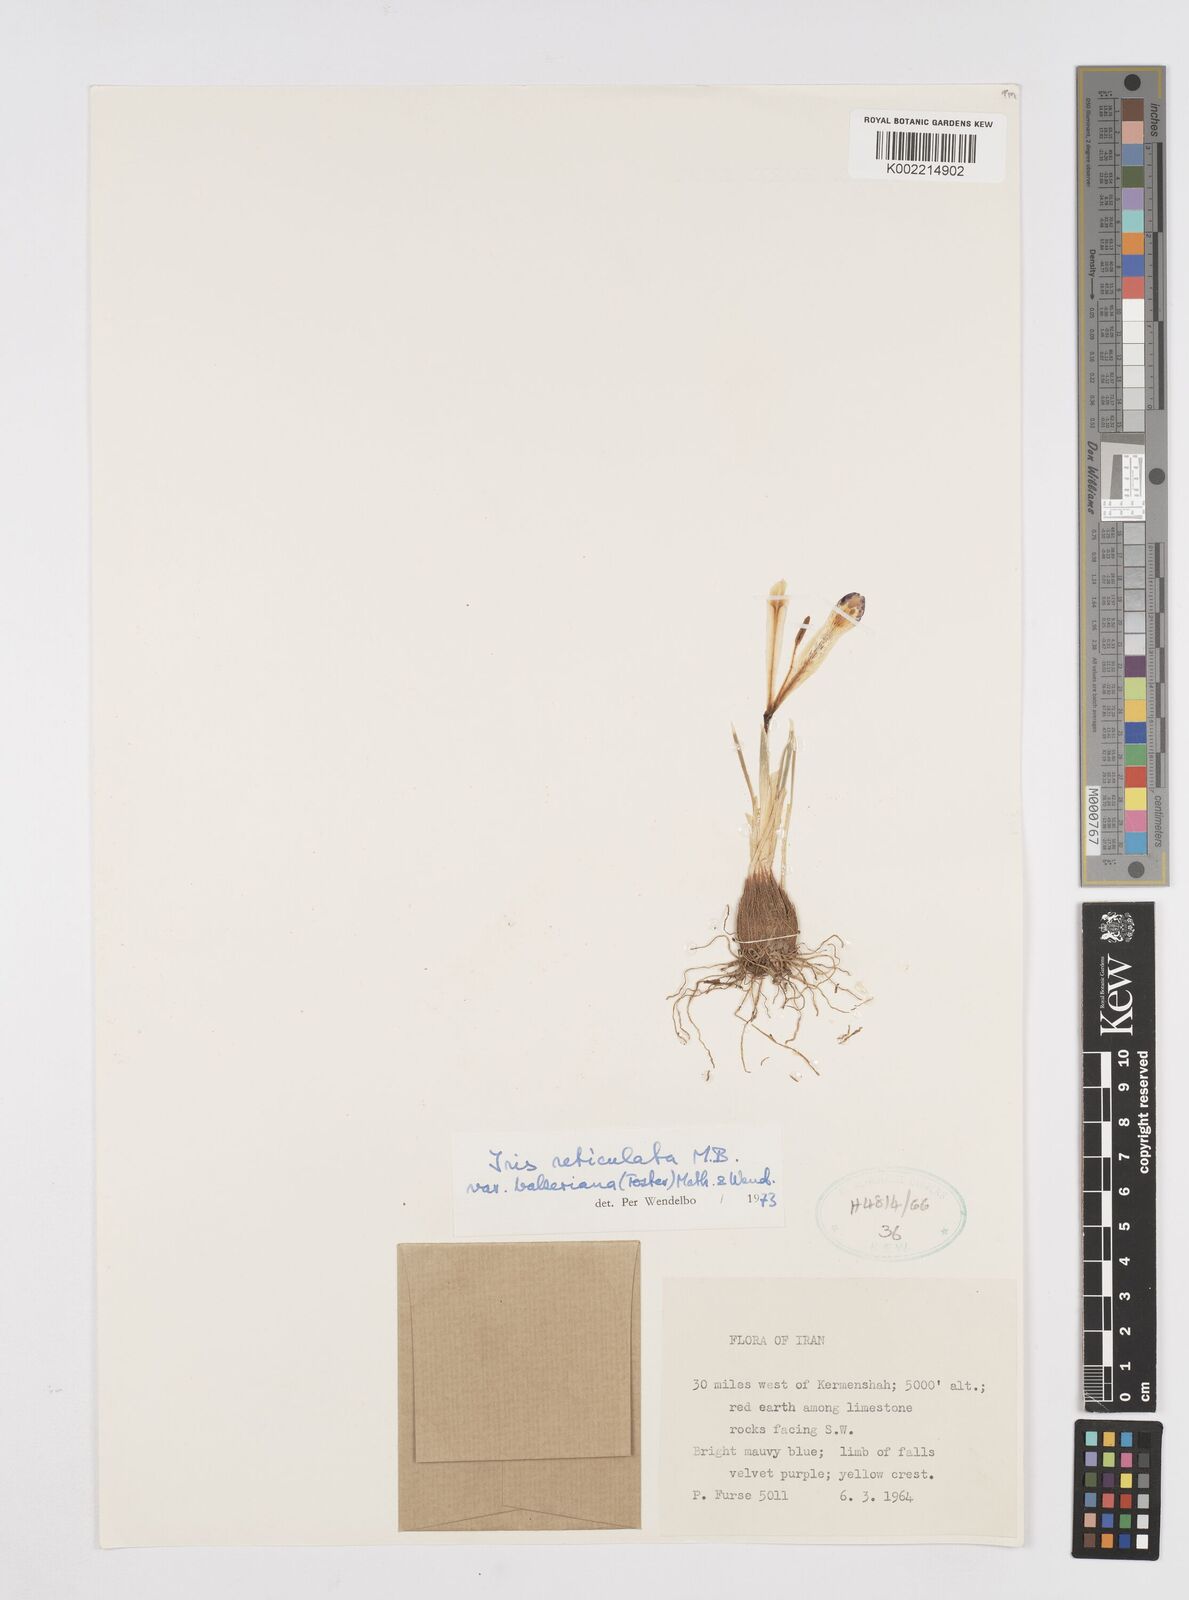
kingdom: Plantae
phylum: Tracheophyta
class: Liliopsida
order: Asparagales
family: Iridaceae
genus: Iris
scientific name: Iris reticulata
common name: Netted iris
